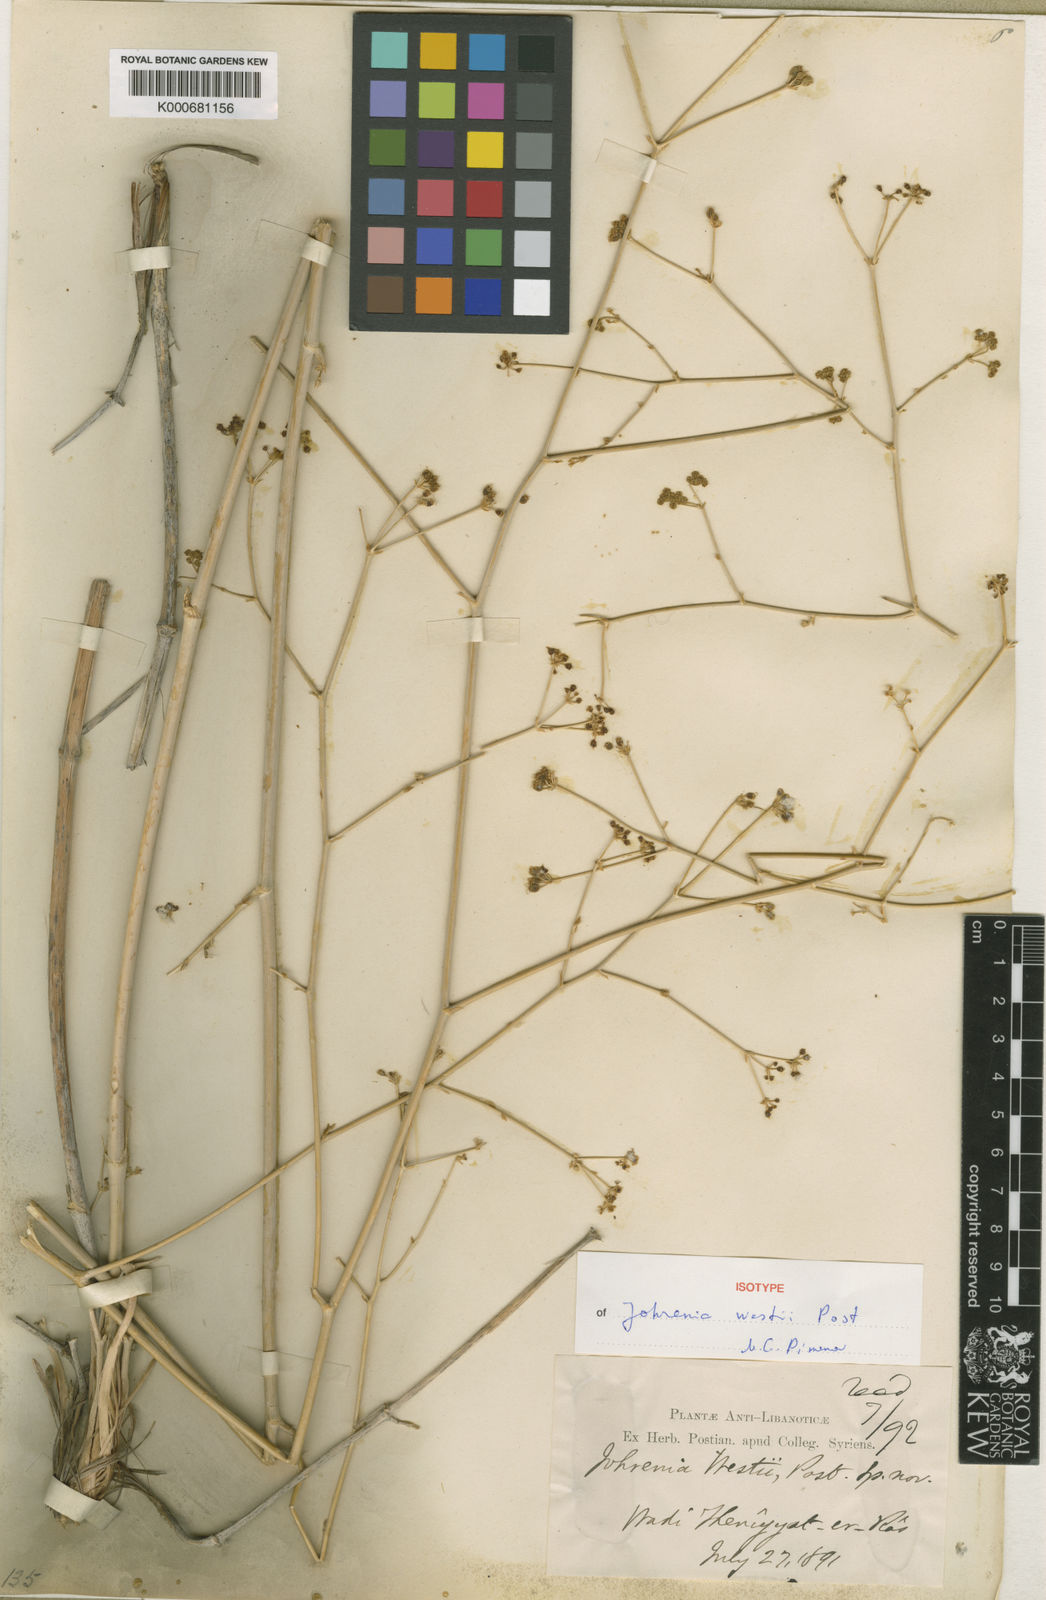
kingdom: Plantae
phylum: Tracheophyta
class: Magnoliopsida
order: Apiales
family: Apiaceae
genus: Ferulago
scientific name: Ferulago westii
